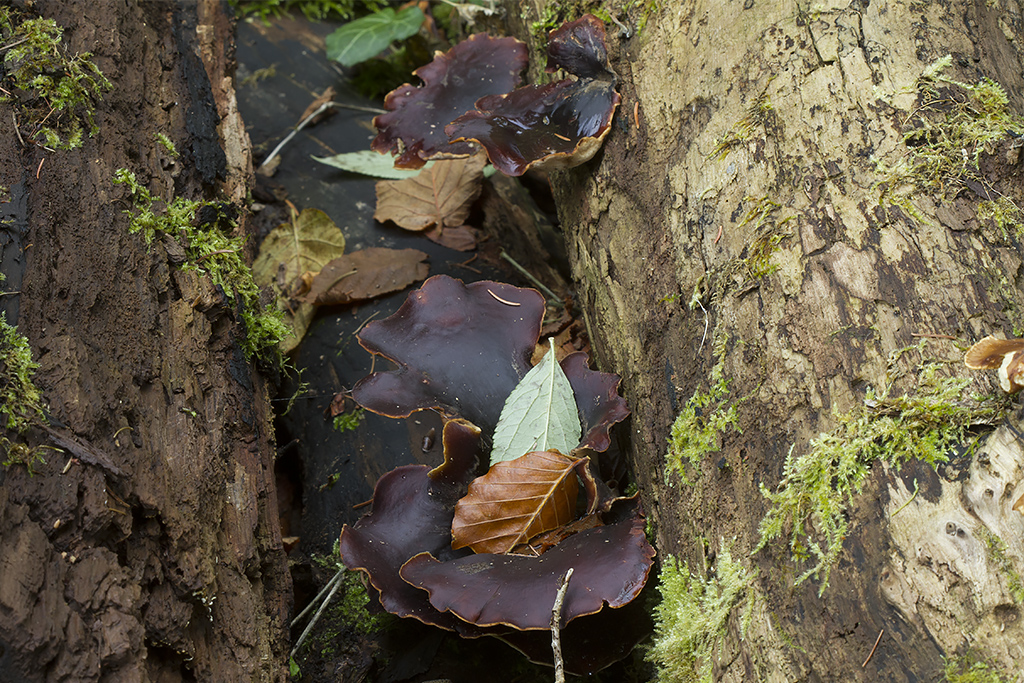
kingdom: Fungi
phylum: Basidiomycota
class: Agaricomycetes
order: Polyporales
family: Polyporaceae
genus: Picipes
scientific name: Picipes badius
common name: kastaniebrun stilkporesvamp
